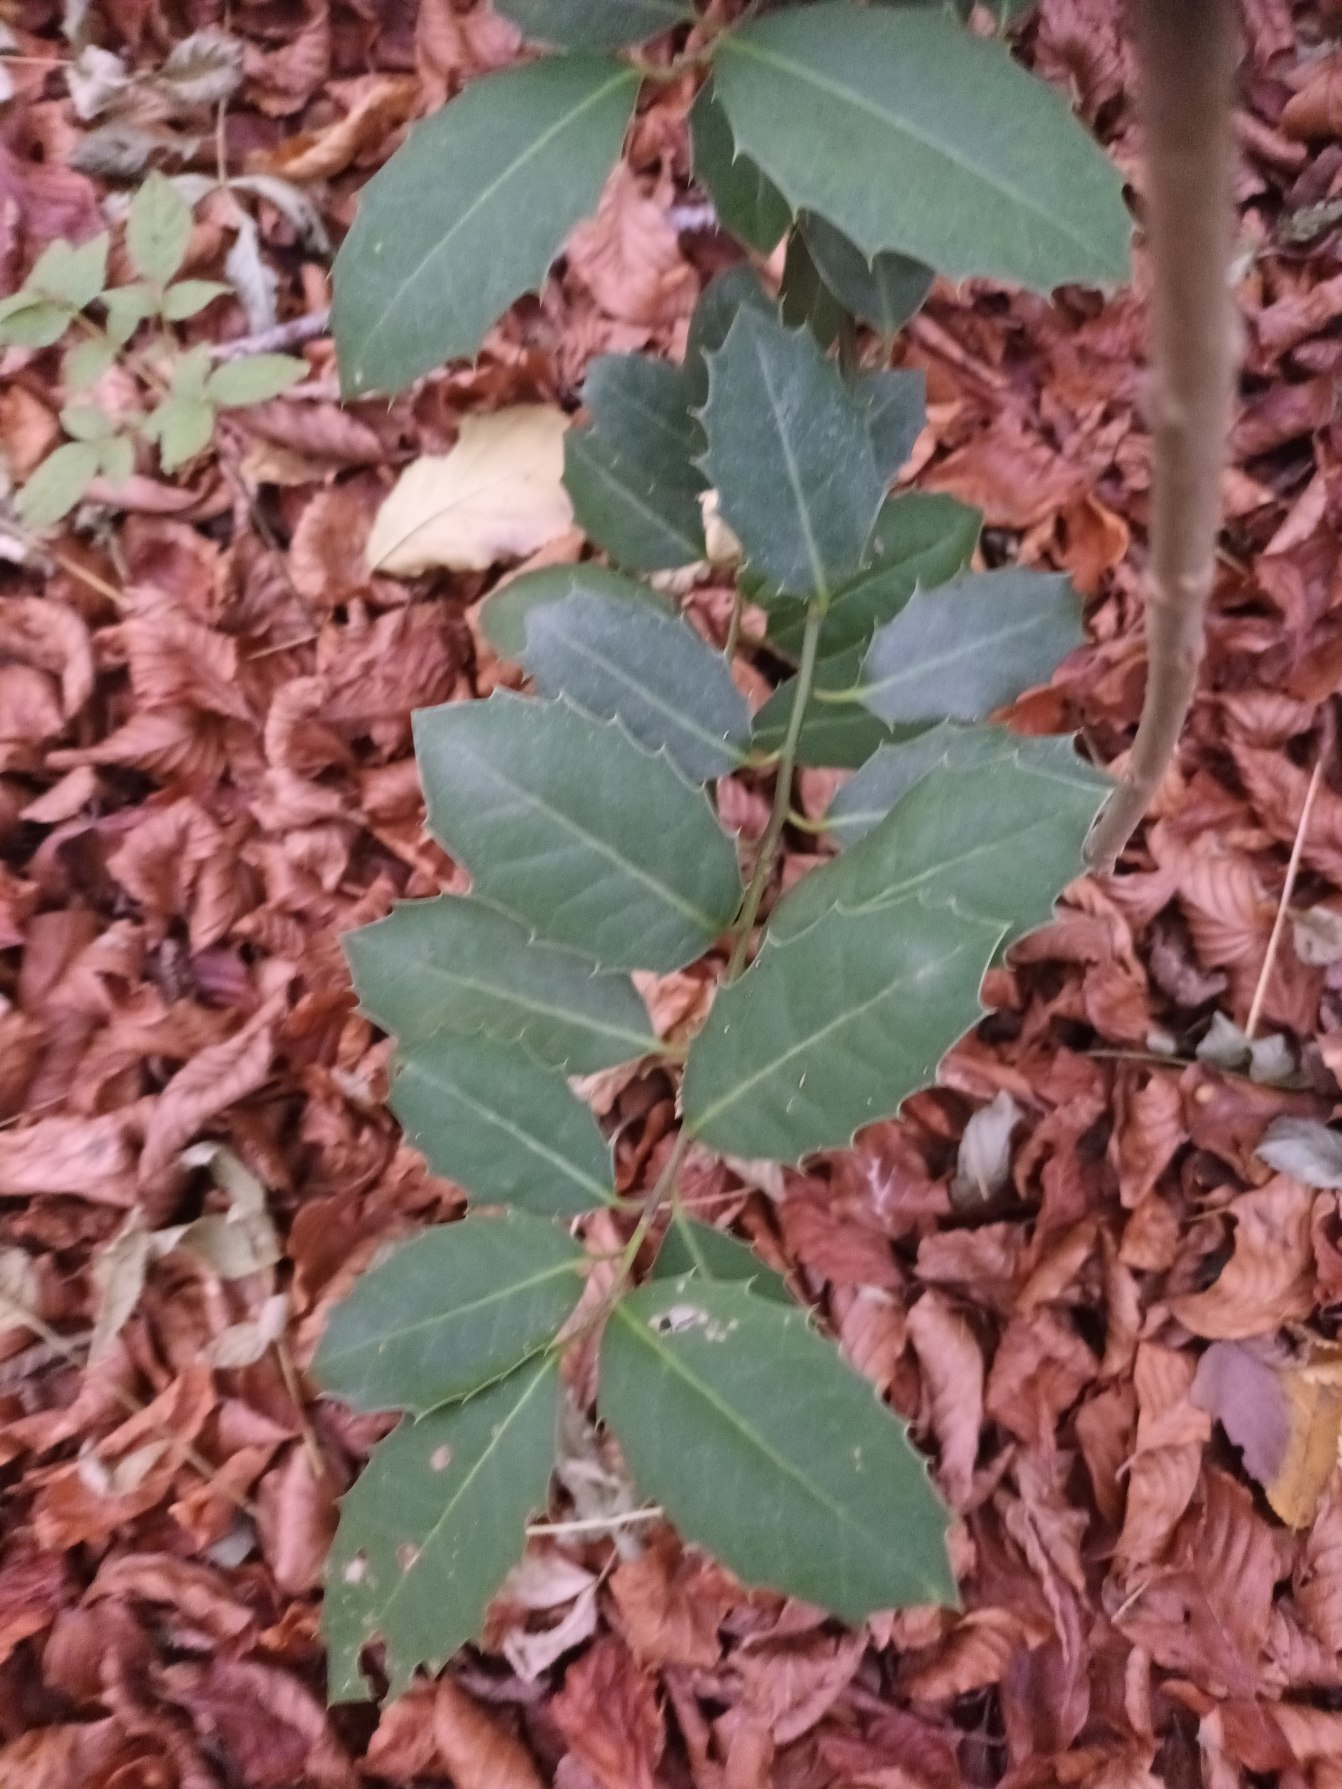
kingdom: Plantae
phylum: Tracheophyta
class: Magnoliopsida
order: Aquifoliales
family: Aquifoliaceae
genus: Ilex
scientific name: Ilex altaclerensis
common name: Storbladet kristtorn
